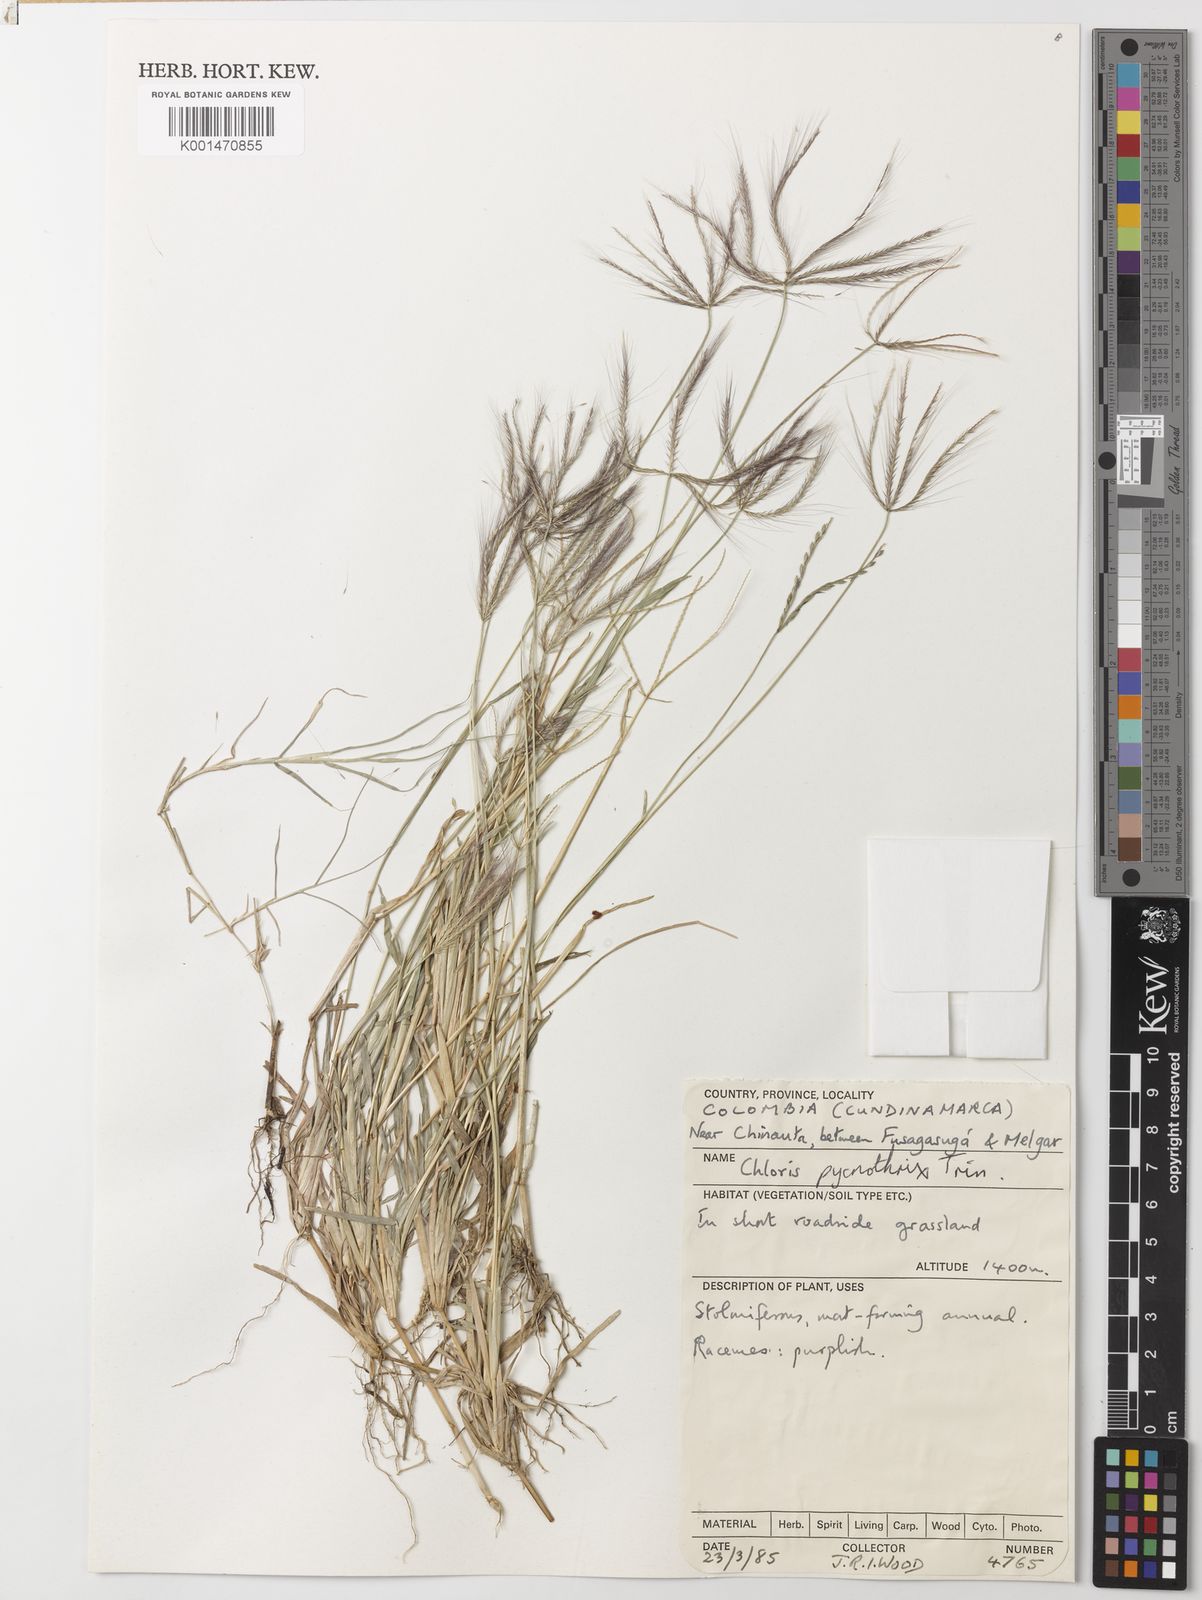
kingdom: Plantae
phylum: Tracheophyta
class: Liliopsida
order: Poales
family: Poaceae
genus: Chloris
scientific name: Chloris pycnothrix
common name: Spiderweb chloris
